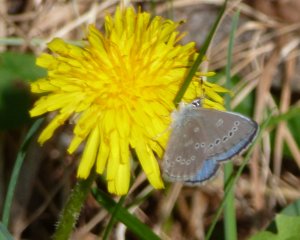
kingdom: Animalia
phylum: Arthropoda
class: Insecta
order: Lepidoptera
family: Lycaenidae
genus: Glaucopsyche
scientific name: Glaucopsyche lygdamus
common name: Silvery Blue
